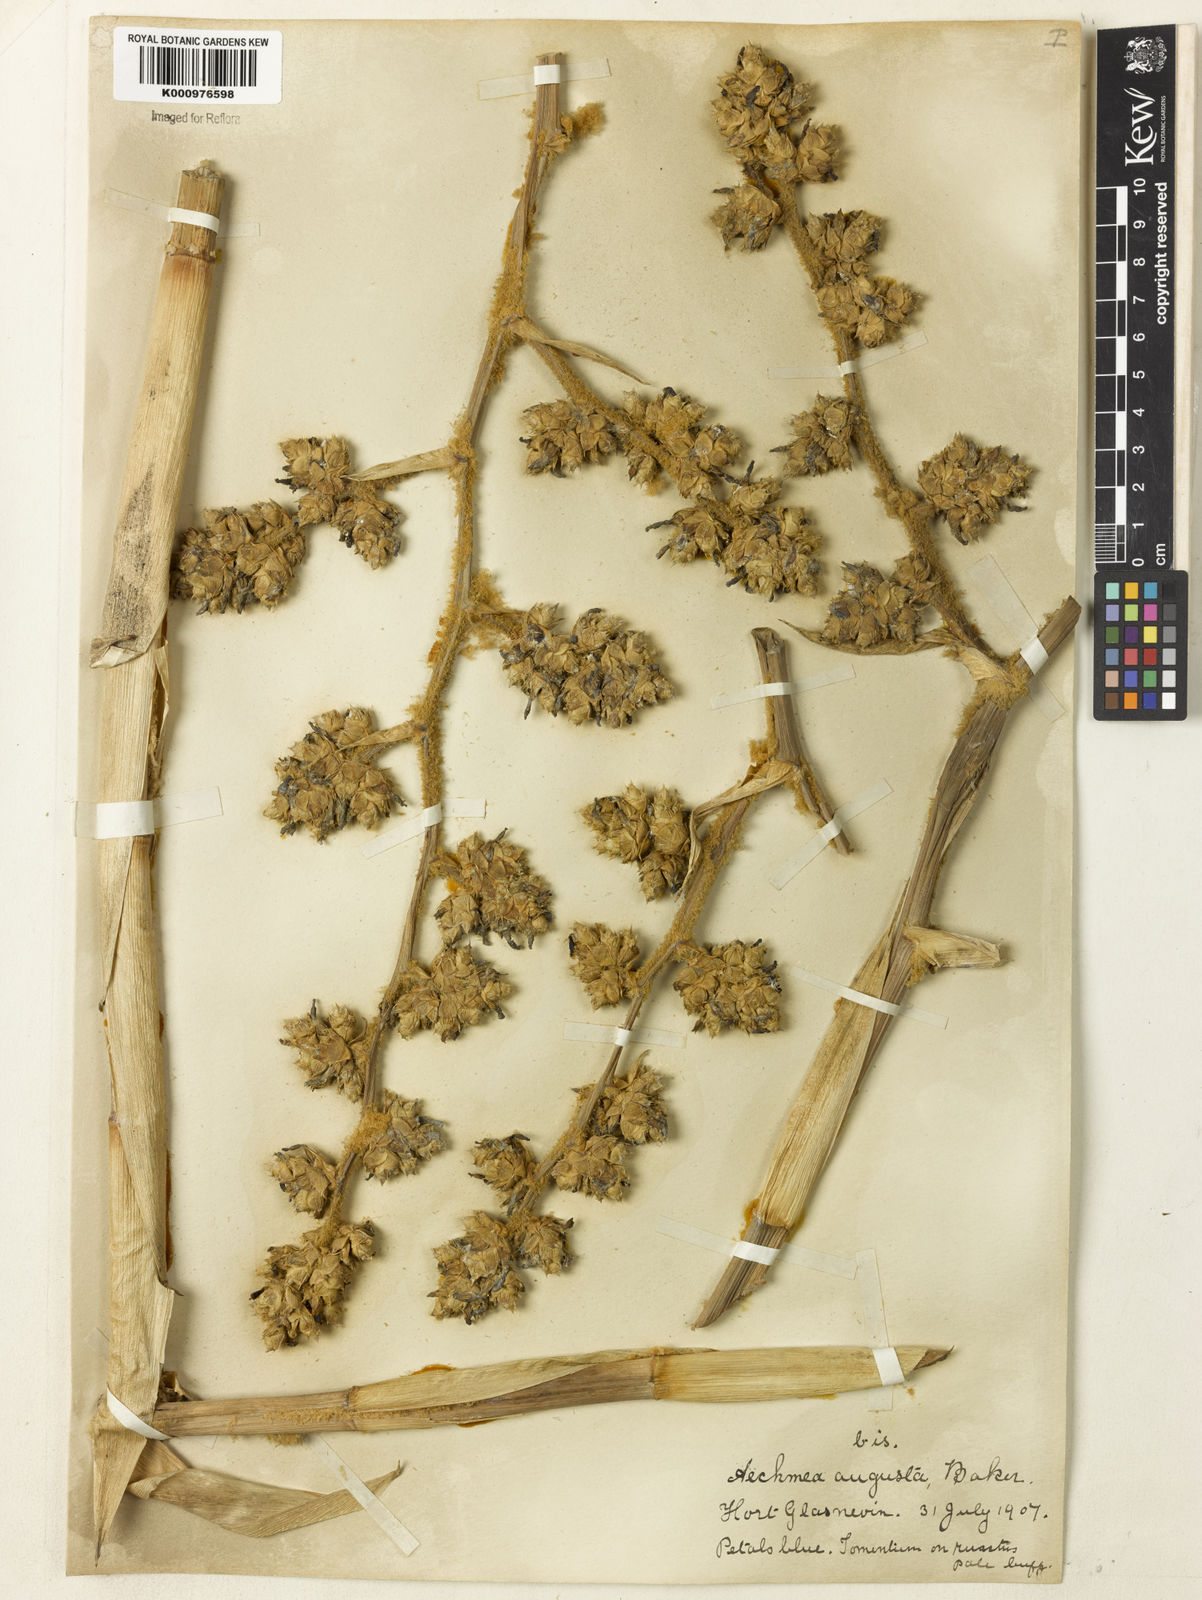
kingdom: Plantae
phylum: Tracheophyta
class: Liliopsida
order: Poales
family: Bromeliaceae
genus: Hohenbergia
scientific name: Hohenbergia augusta
